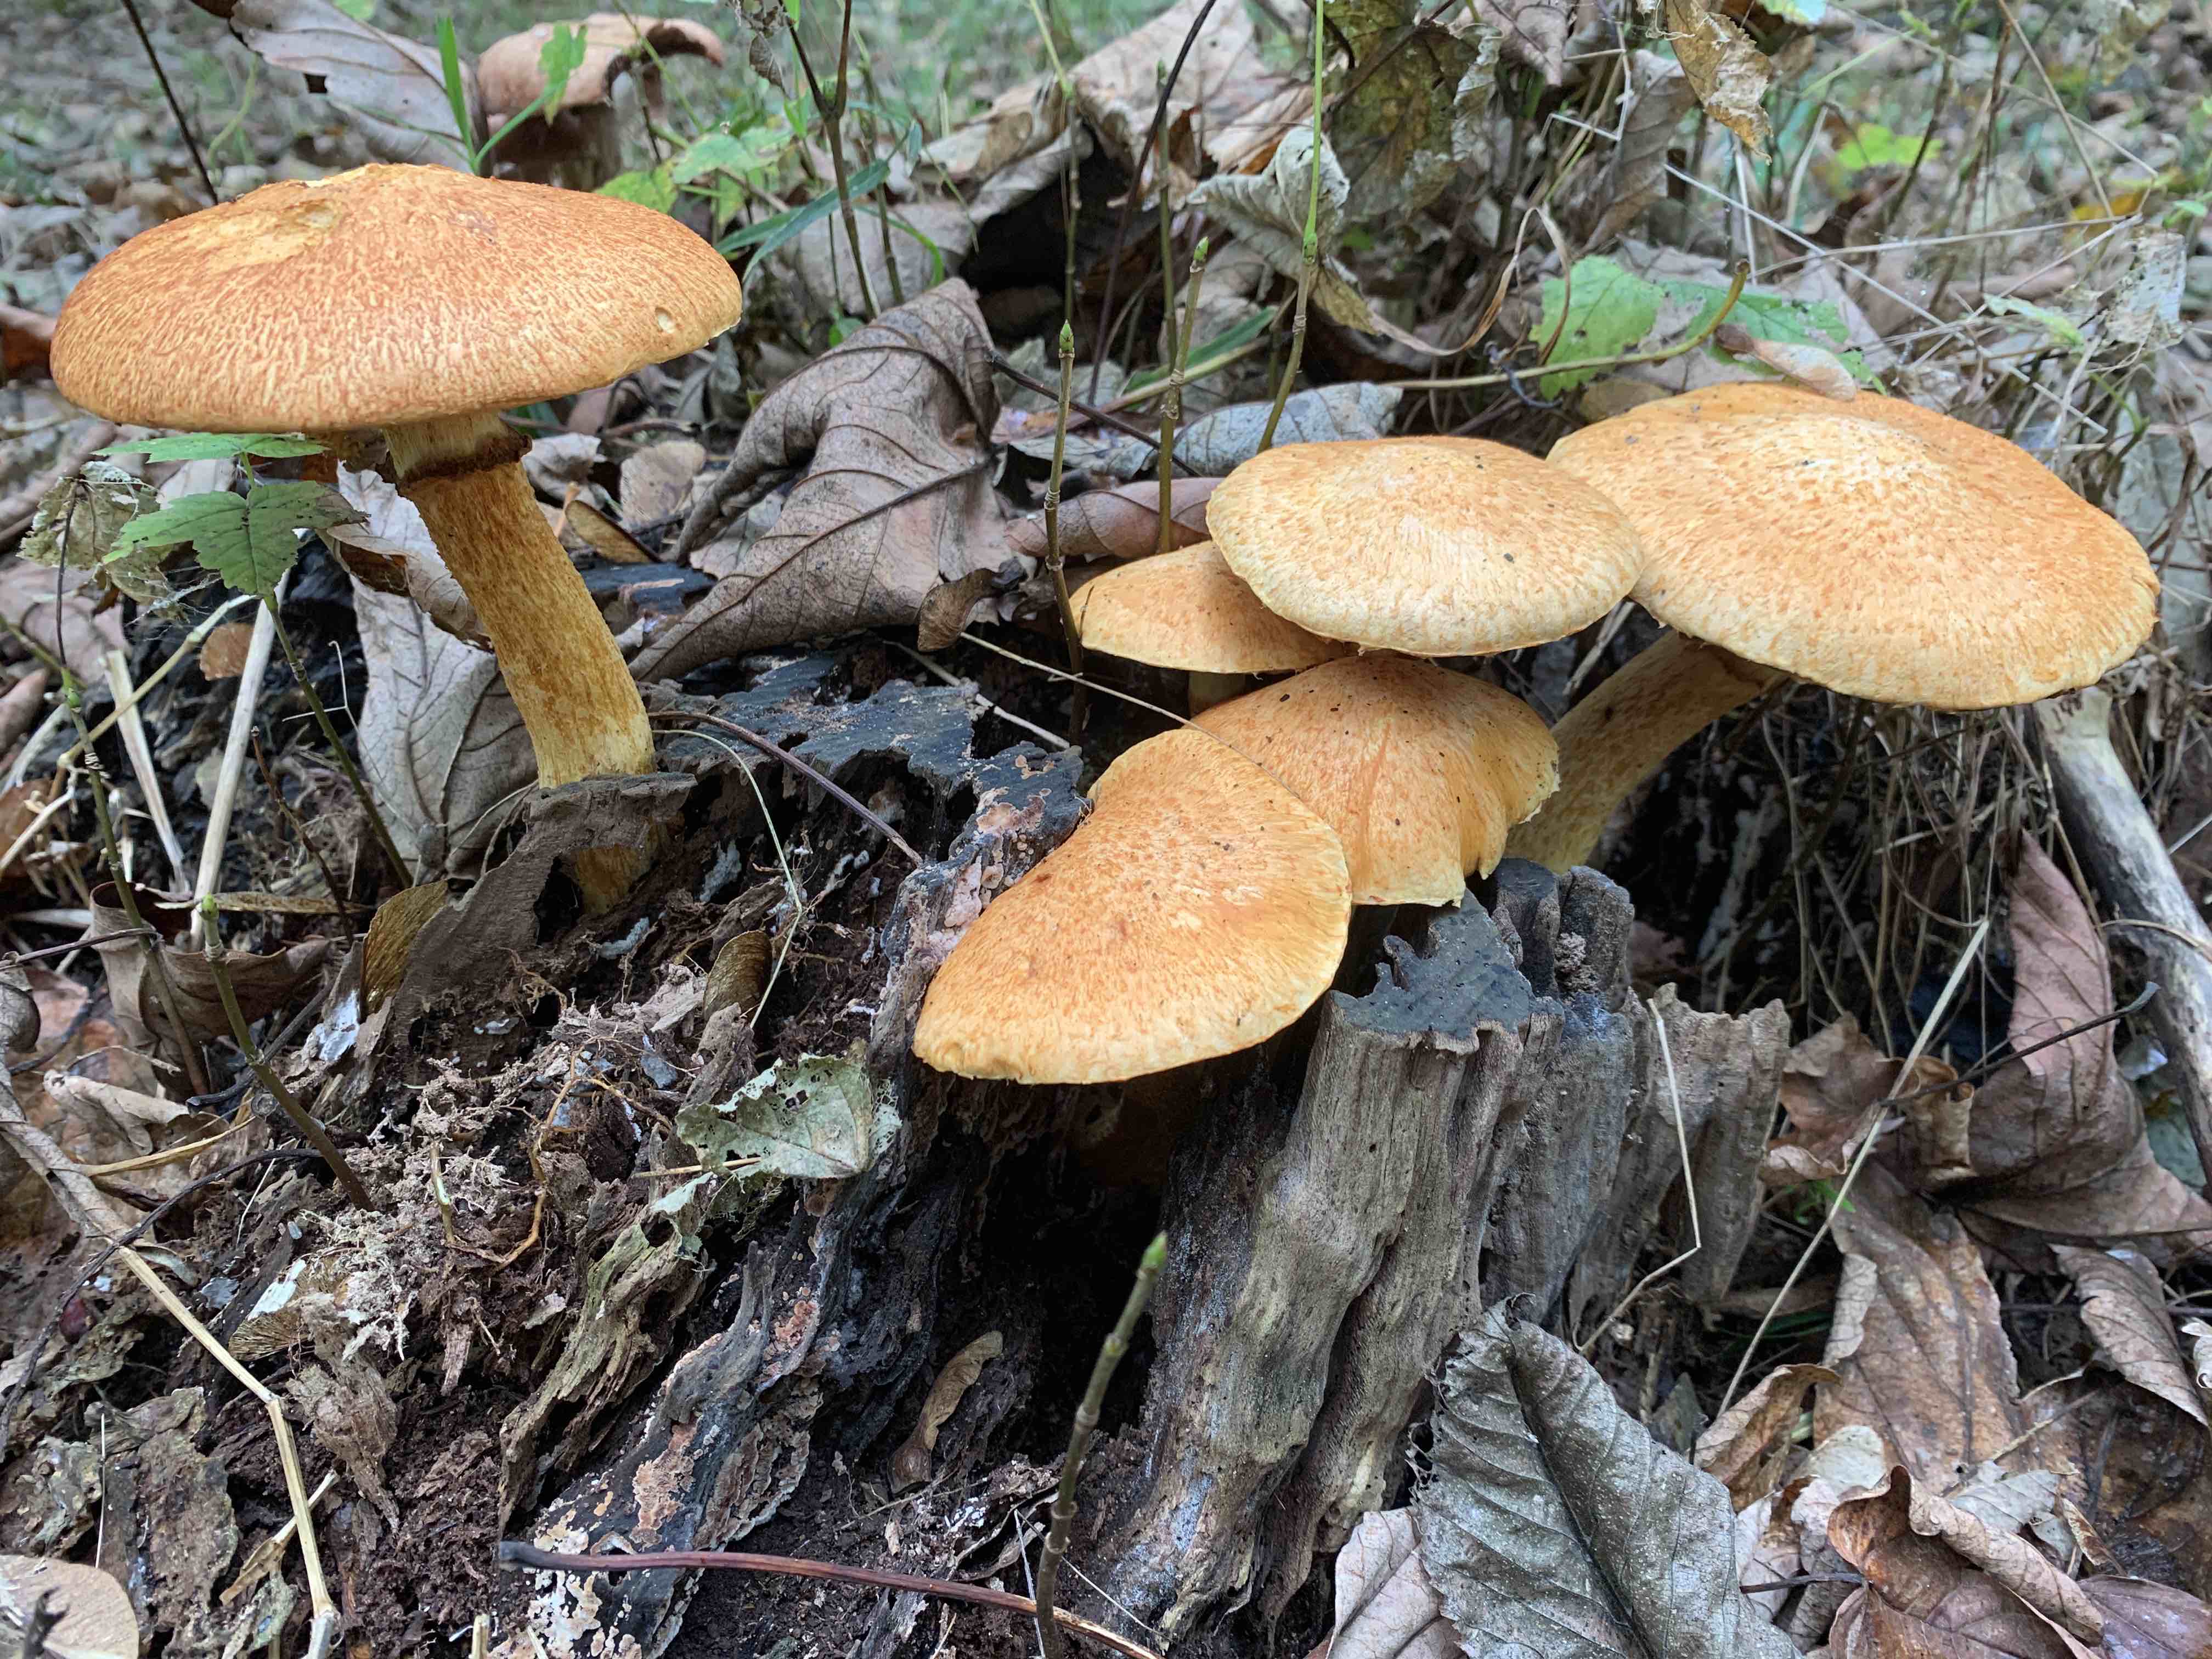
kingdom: Fungi
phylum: Basidiomycota
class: Agaricomycetes
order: Agaricales
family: Hymenogastraceae
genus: Gymnopilus
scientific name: Gymnopilus spectabilis
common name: fibret flammehat
